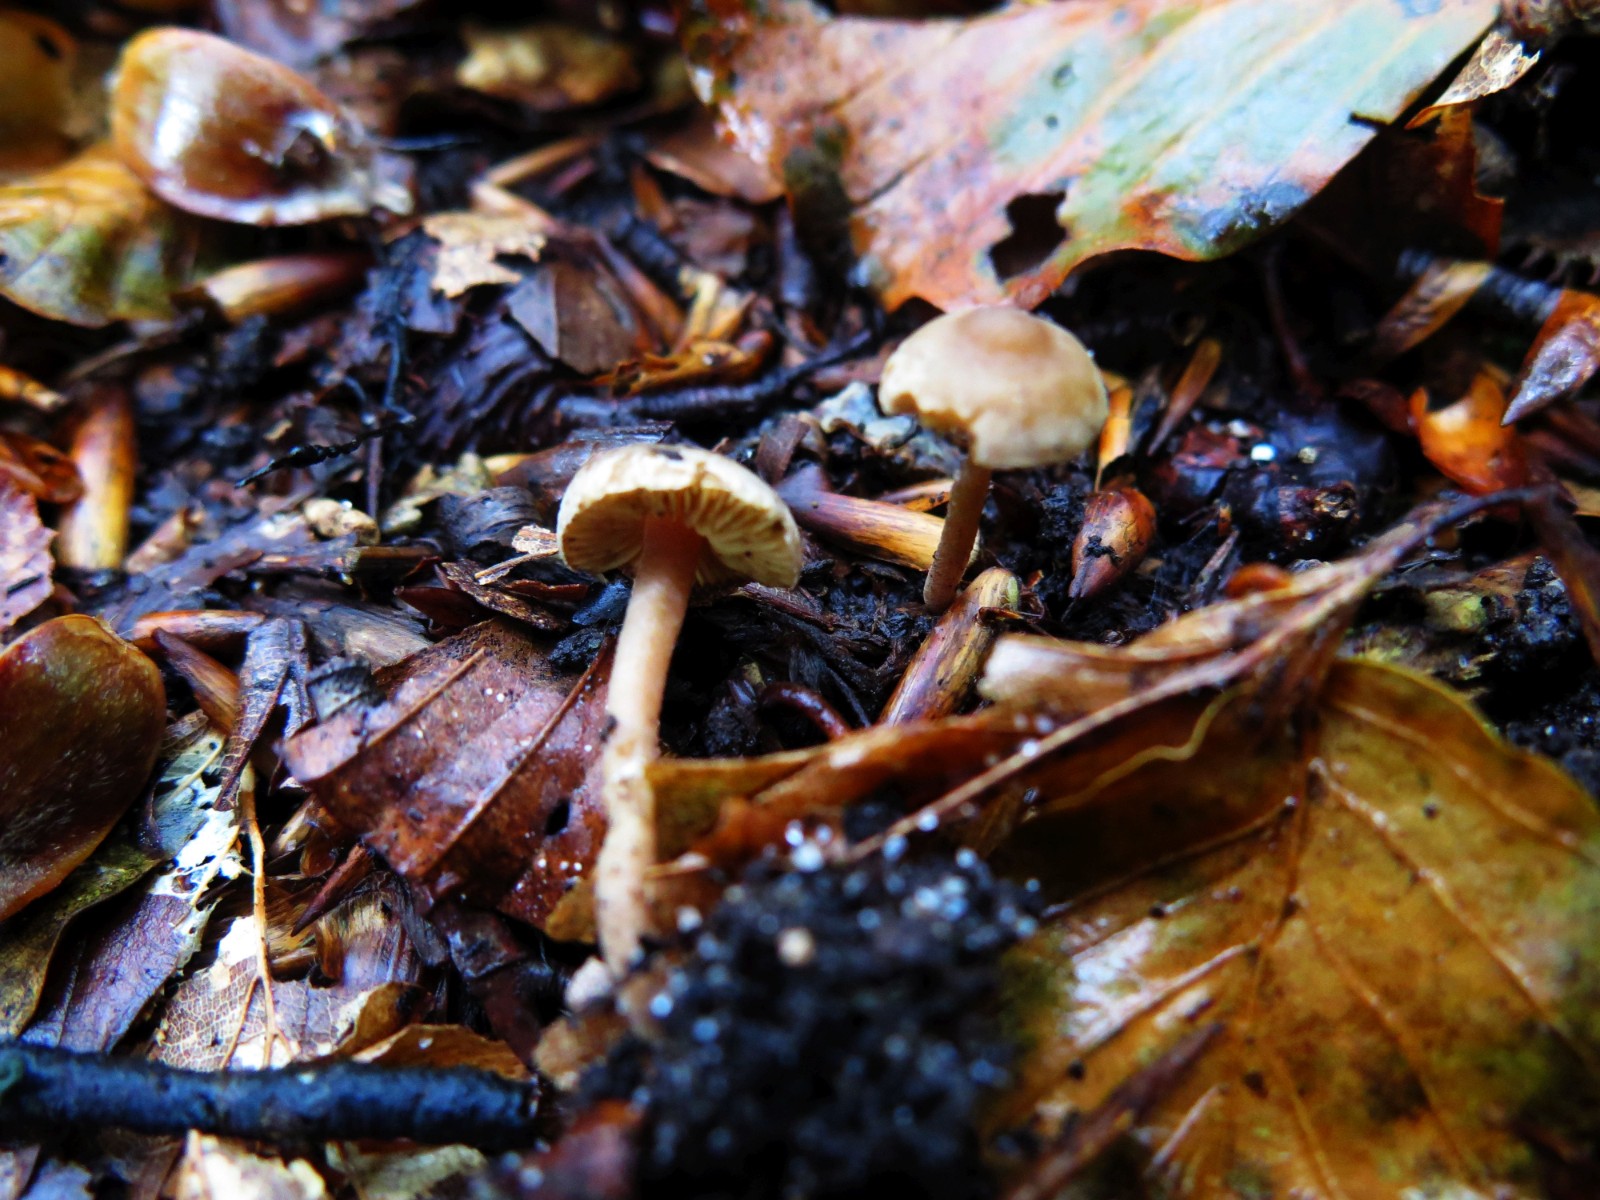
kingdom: Fungi
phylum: Basidiomycota
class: Agaricomycetes
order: Agaricales
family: Inocybaceae
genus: Inocybe
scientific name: Inocybe petiginosa
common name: liden trævlhat
